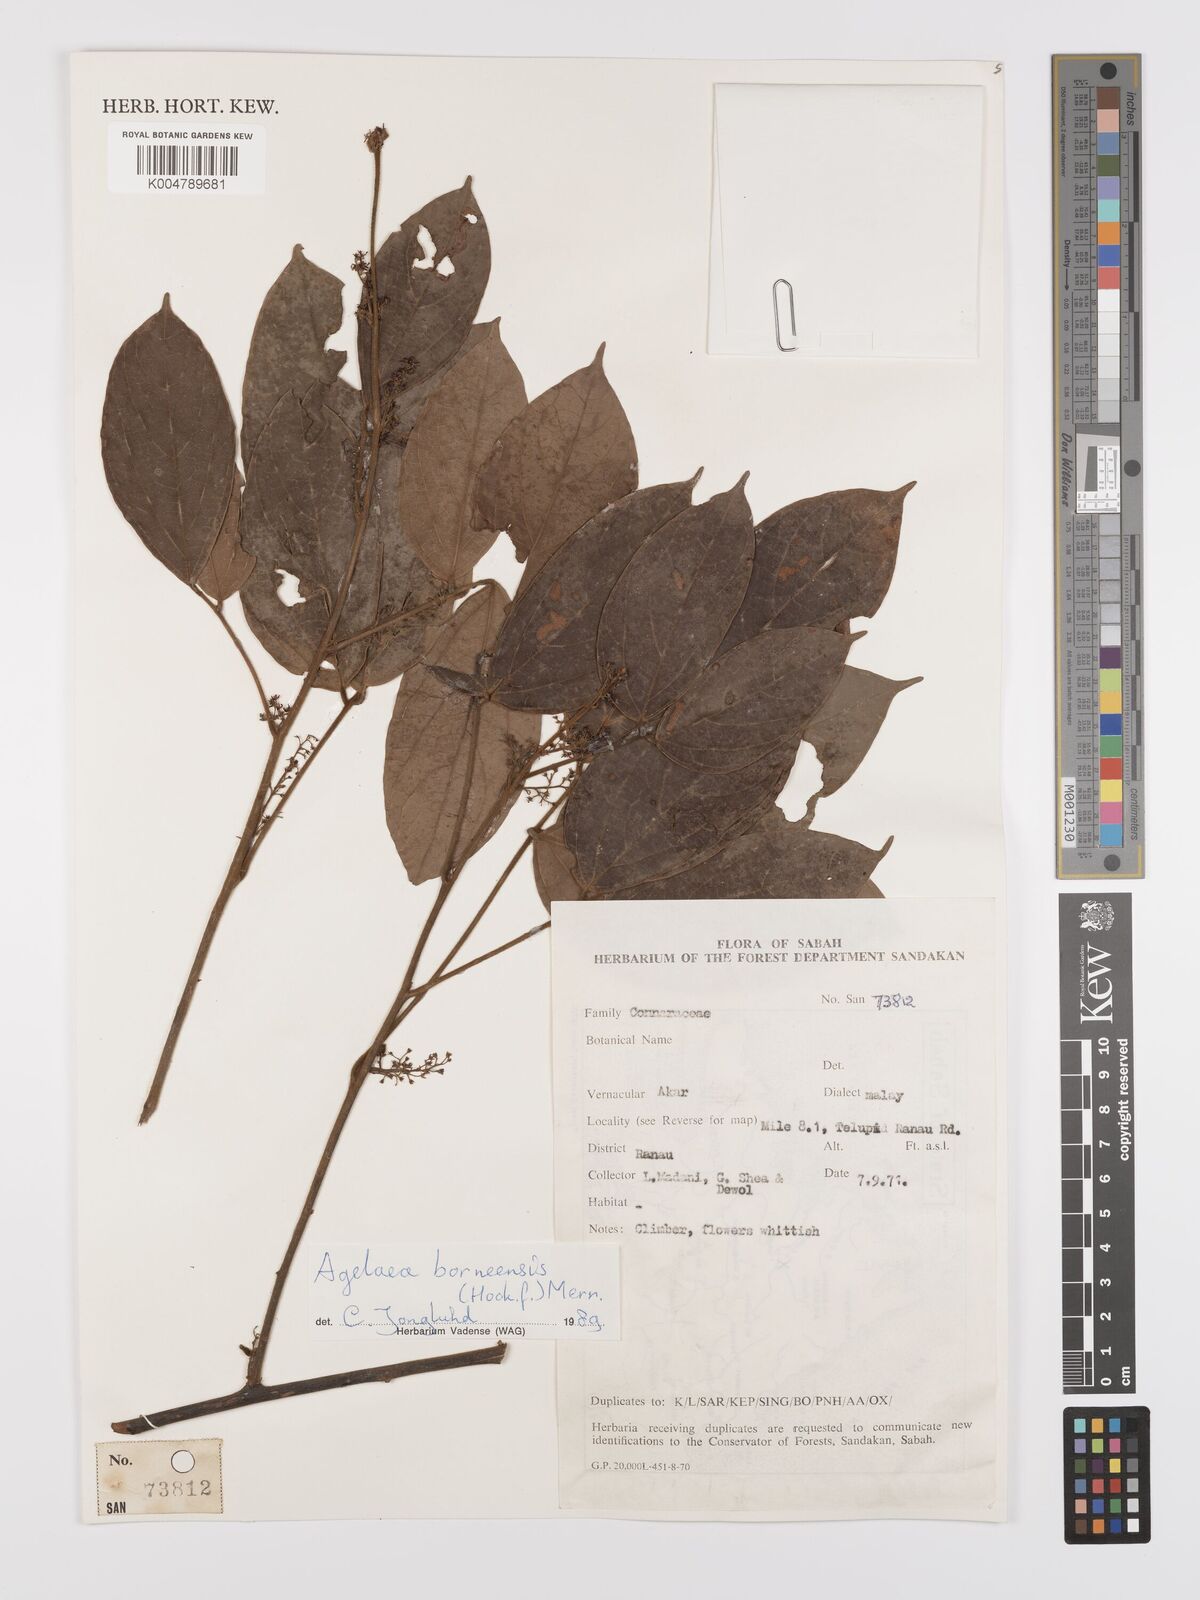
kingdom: Plantae
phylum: Tracheophyta
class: Magnoliopsida
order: Oxalidales
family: Connaraceae
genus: Agelaea
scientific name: Agelaea borneensis
